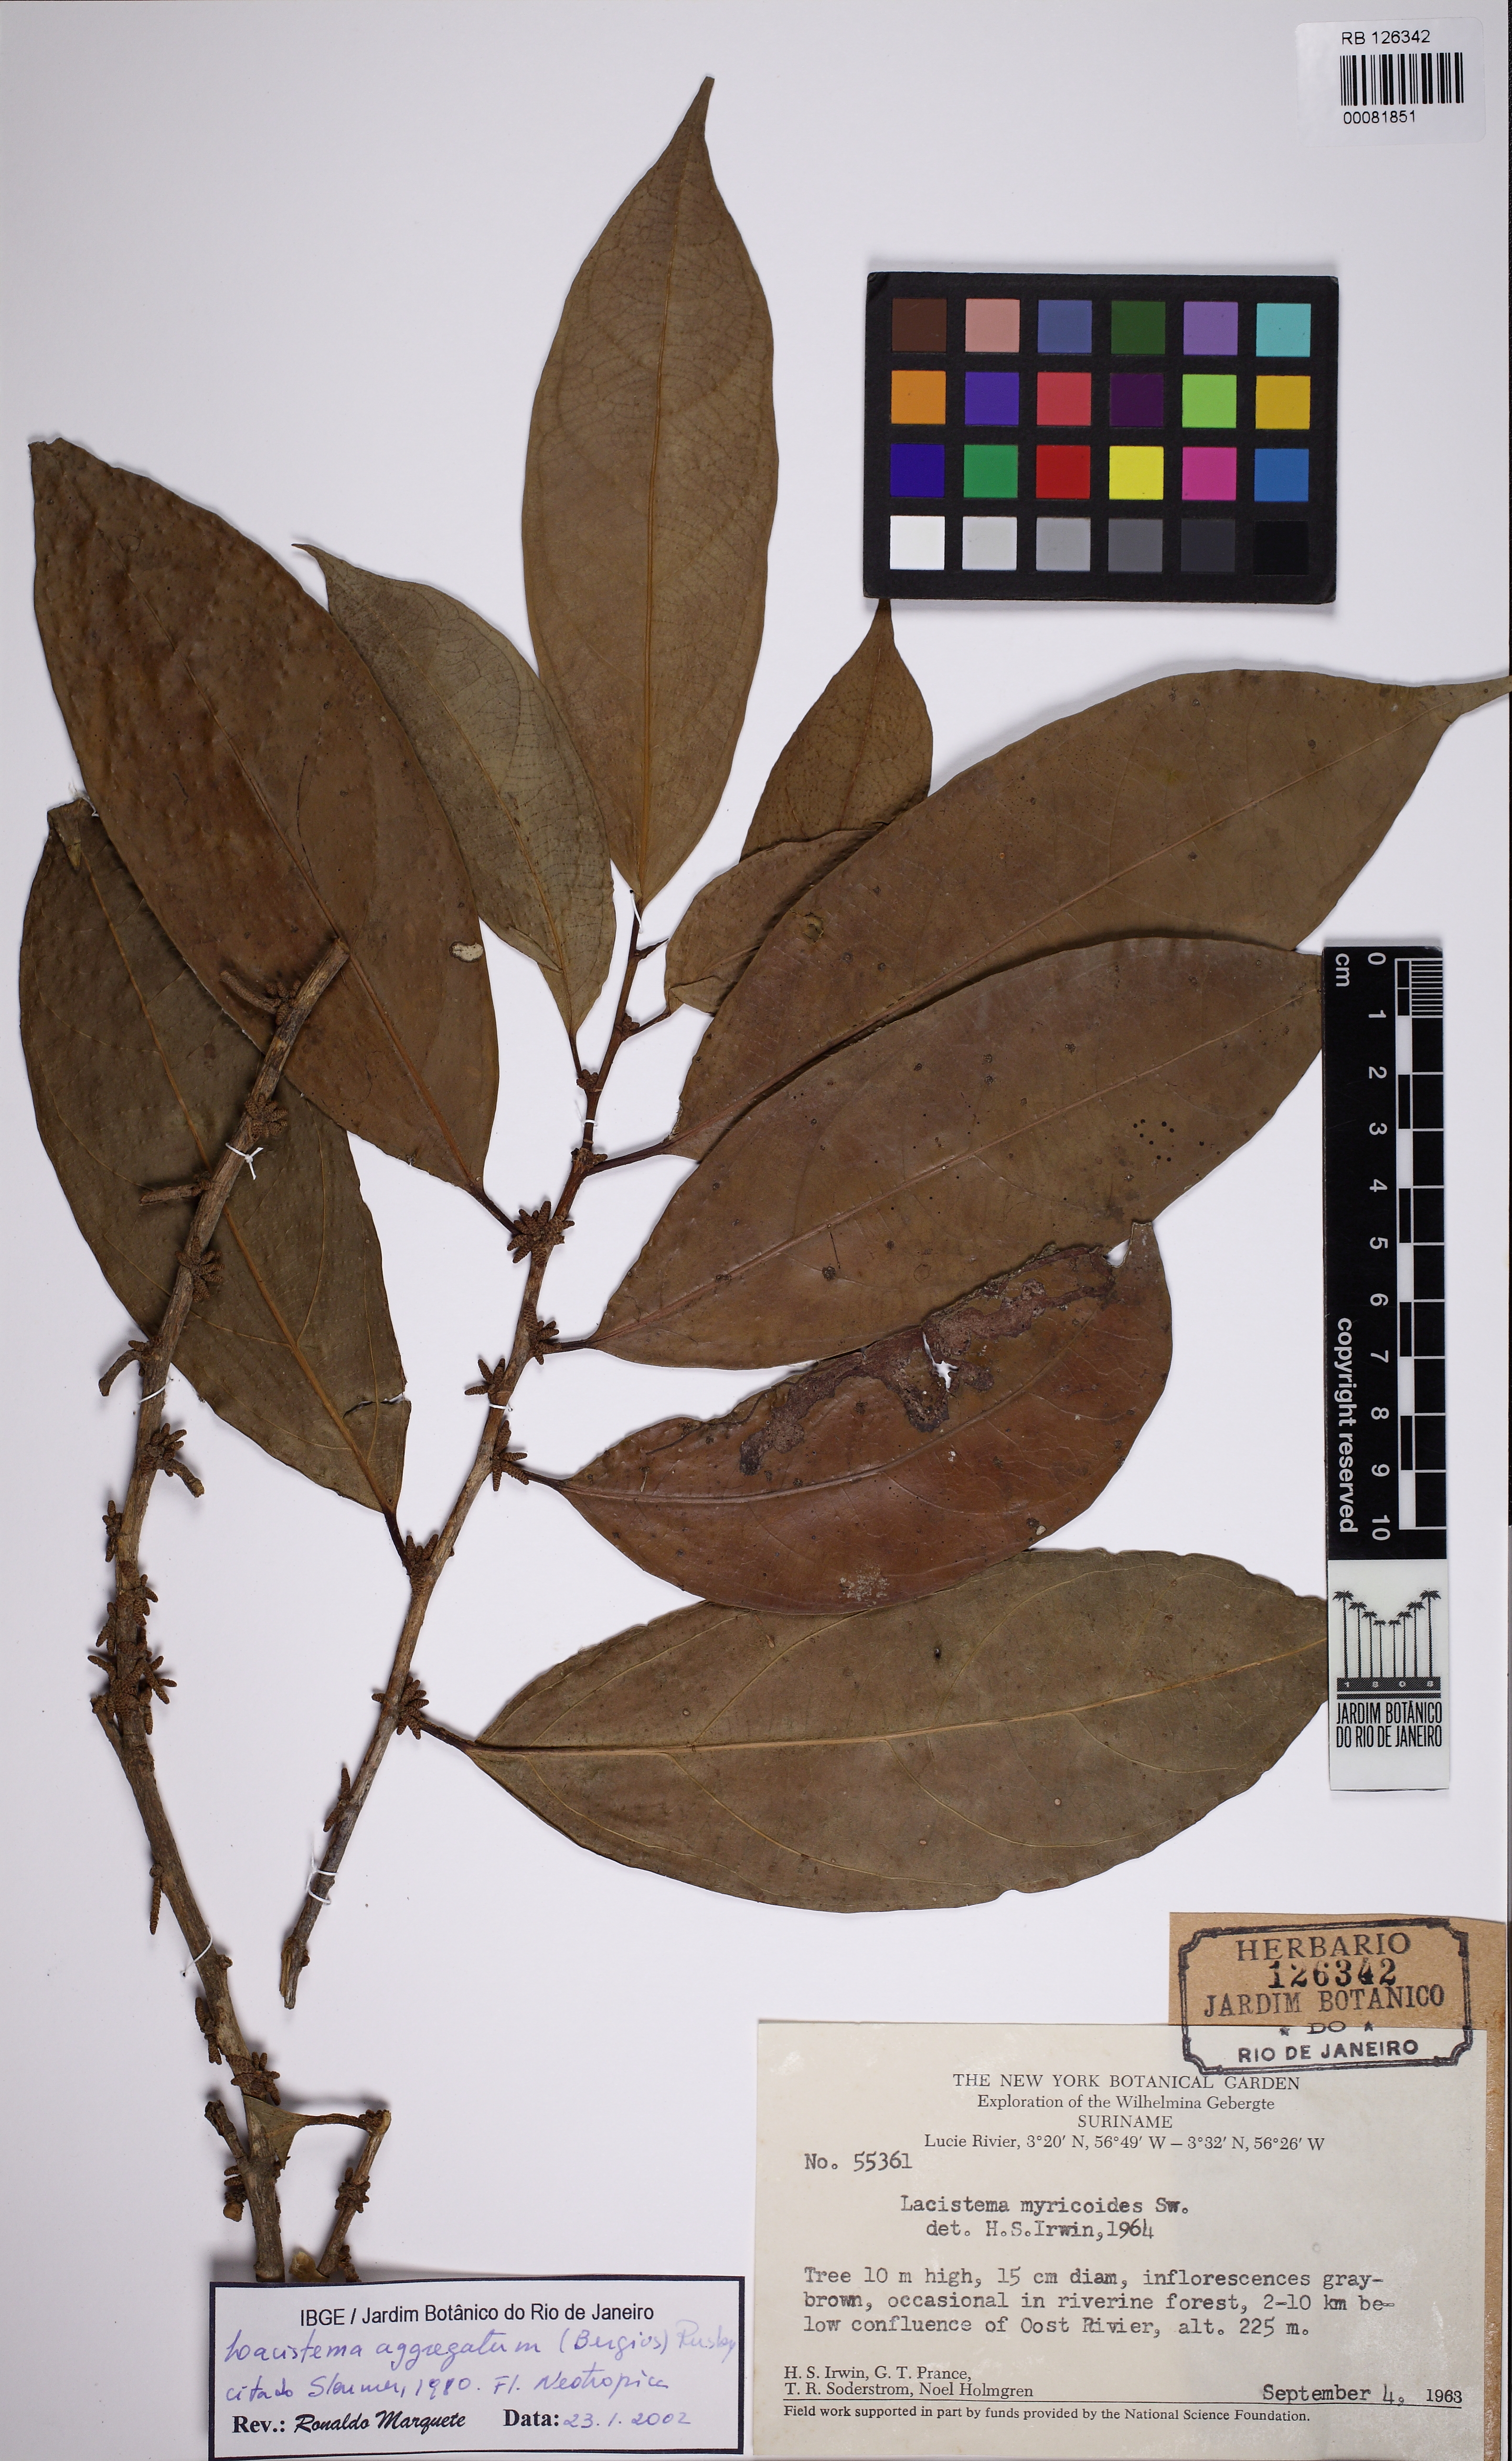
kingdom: Plantae
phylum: Tracheophyta
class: Magnoliopsida
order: Malpighiales
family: Lacistemataceae
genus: Lacistema
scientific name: Lacistema aggregatum
